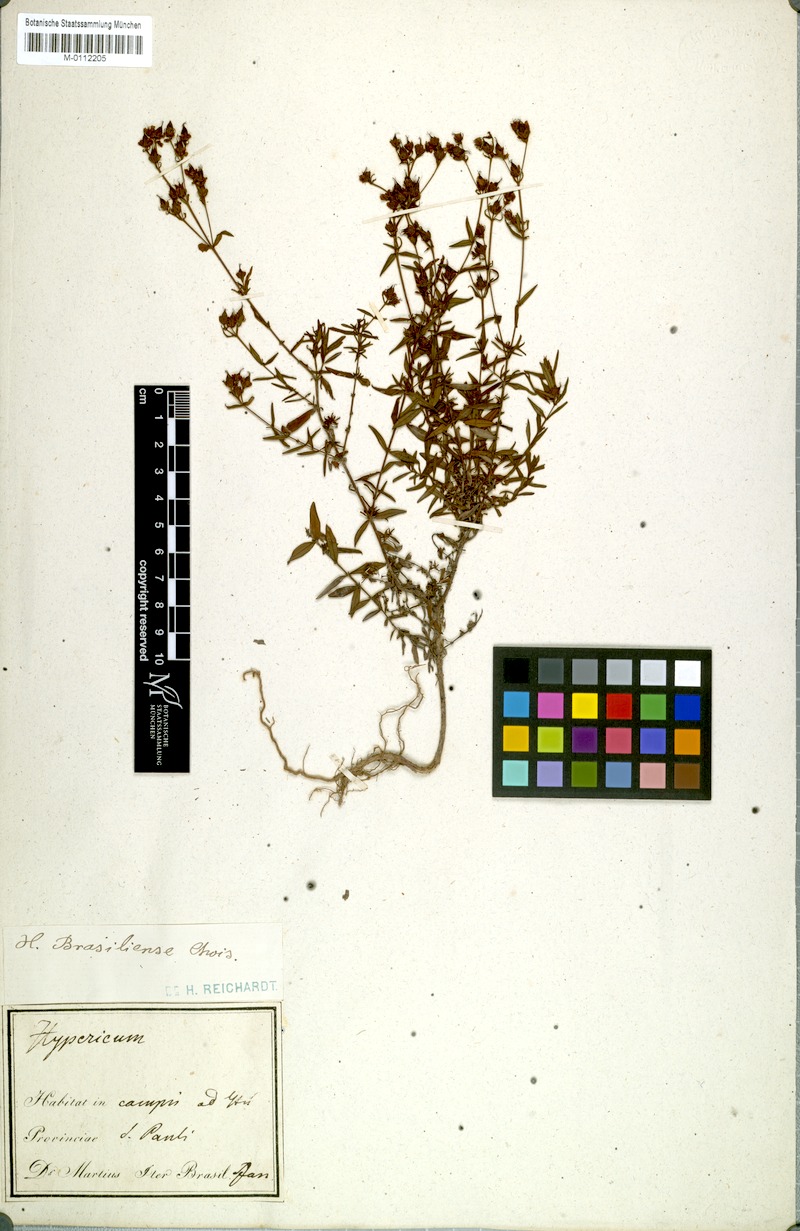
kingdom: Plantae
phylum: Tracheophyta
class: Magnoliopsida
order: Malpighiales
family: Hypericaceae
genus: Hypericum
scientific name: Hypericum brasiliense
